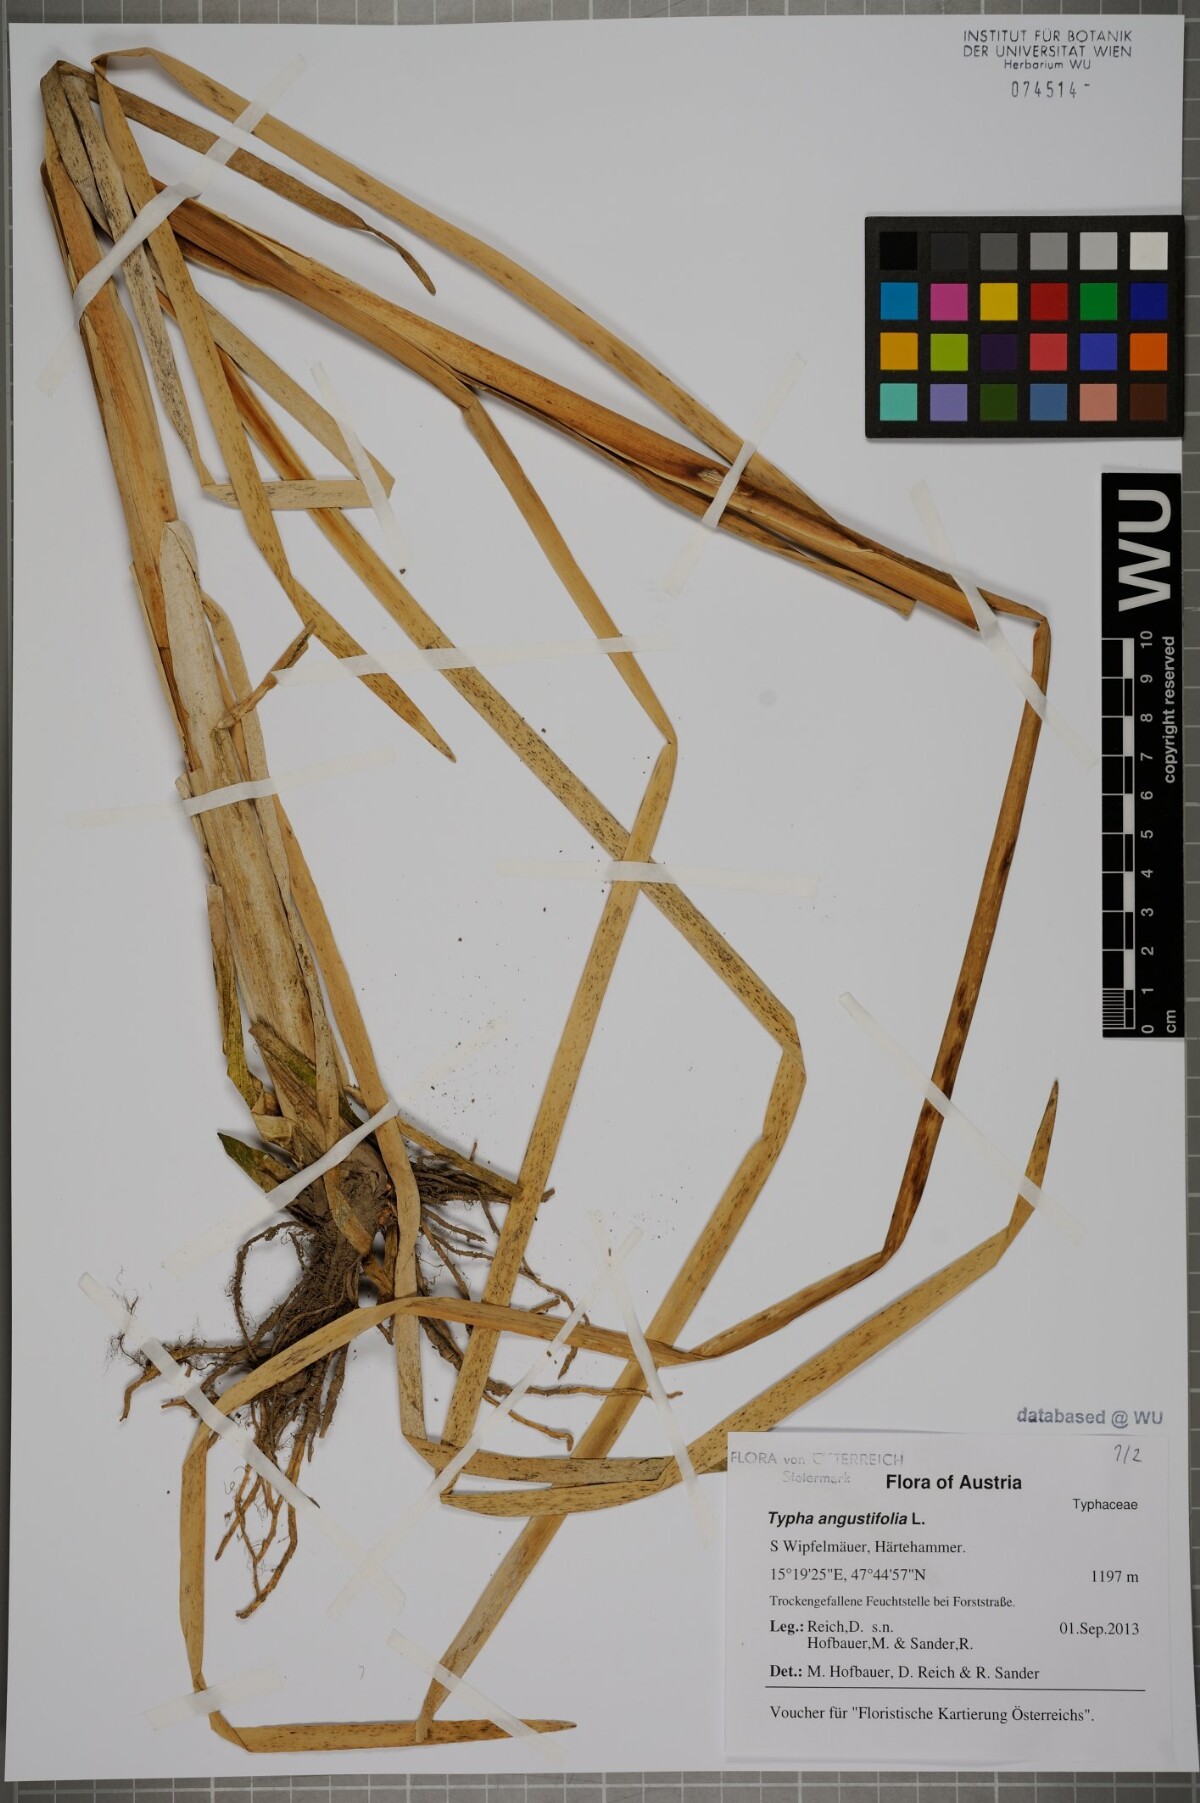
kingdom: Plantae
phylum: Tracheophyta
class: Liliopsida
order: Poales
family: Typhaceae
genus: Typha
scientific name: Typha angustifolia
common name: Lesser bulrush
